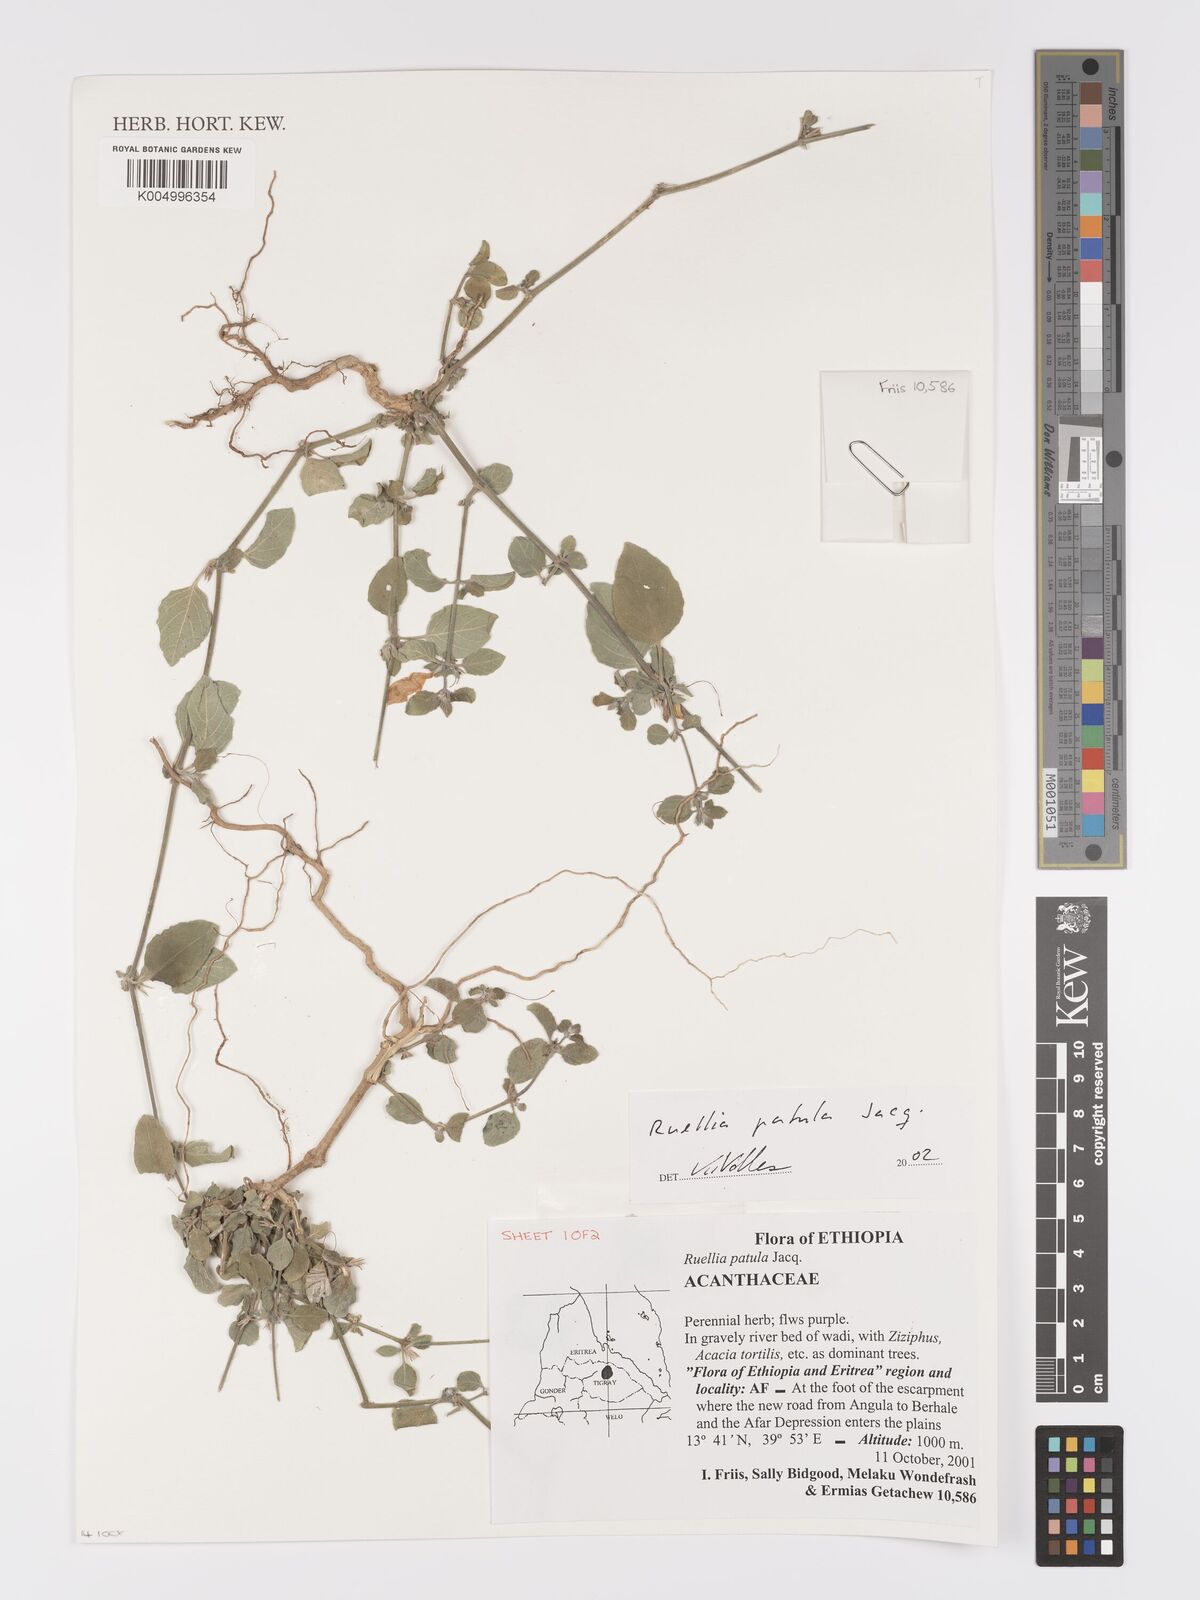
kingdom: Plantae
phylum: Tracheophyta
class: Magnoliopsida
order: Lamiales
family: Acanthaceae
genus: Ruellia
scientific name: Ruellia patula
